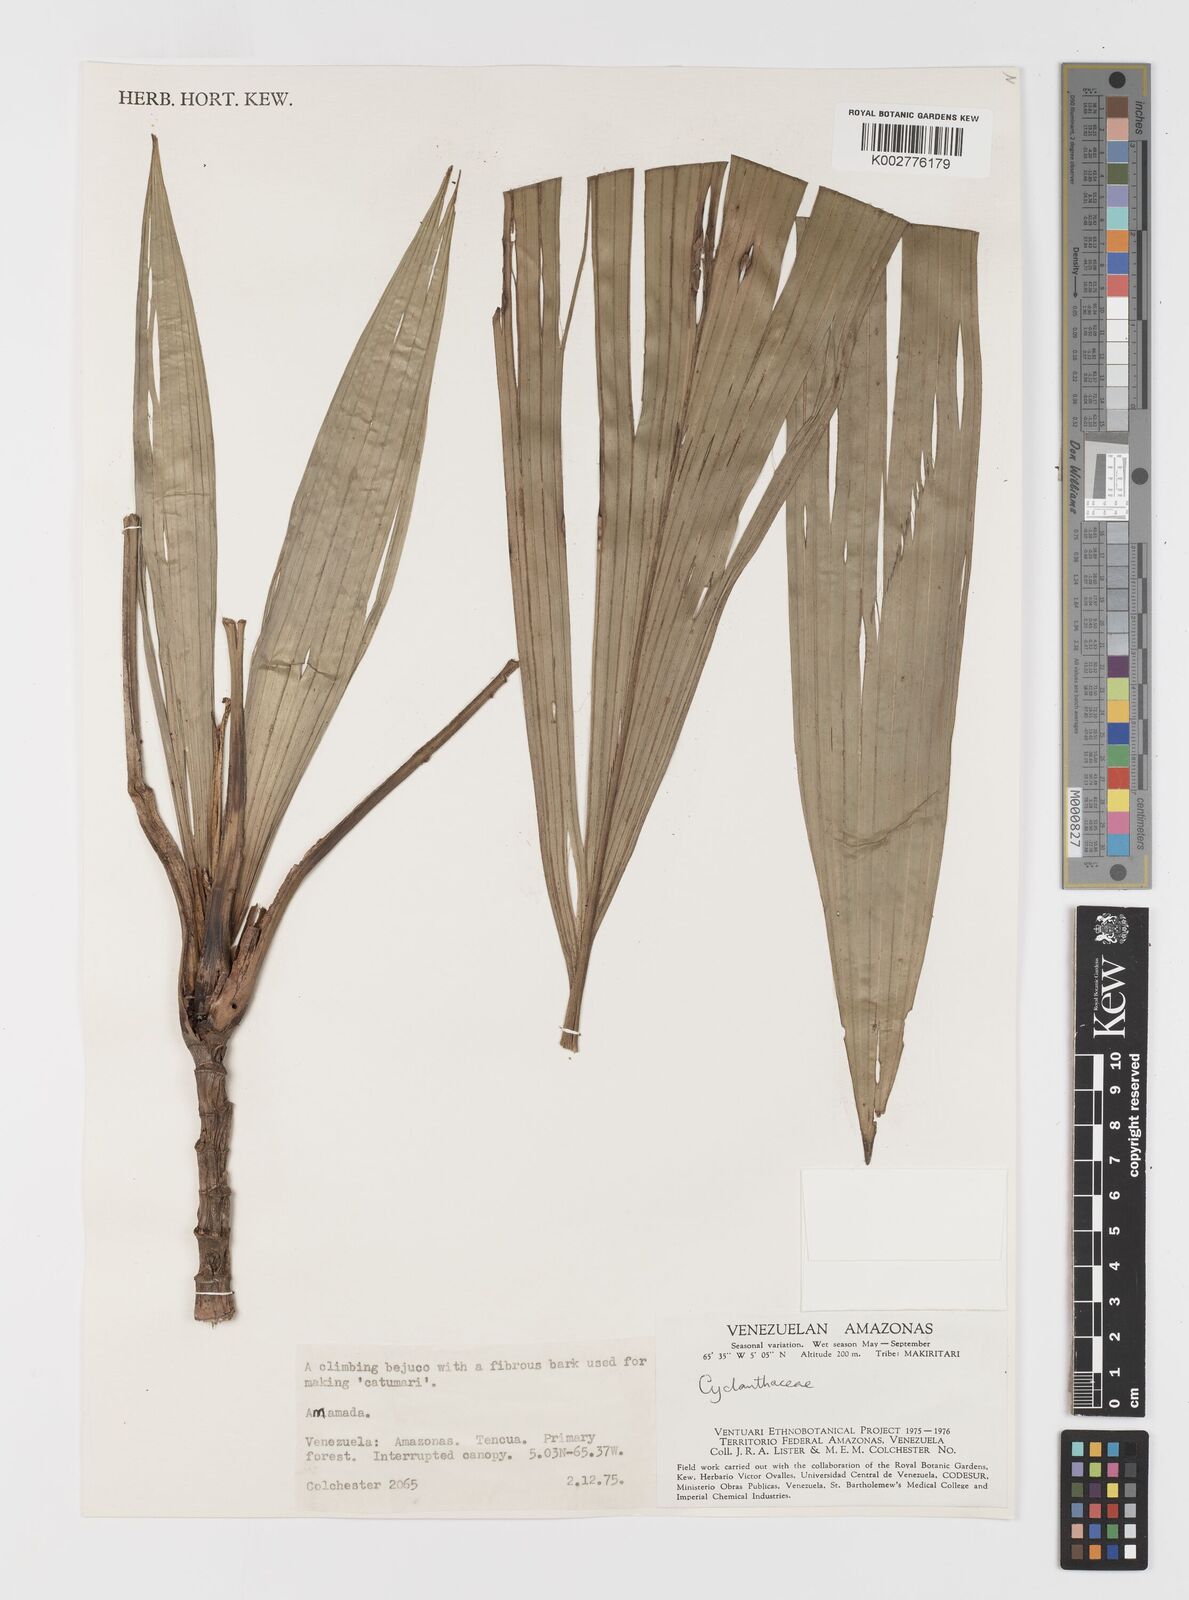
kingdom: Plantae
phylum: Tracheophyta
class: Liliopsida
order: Pandanales
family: Cyclanthaceae
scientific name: Cyclanthaceae
